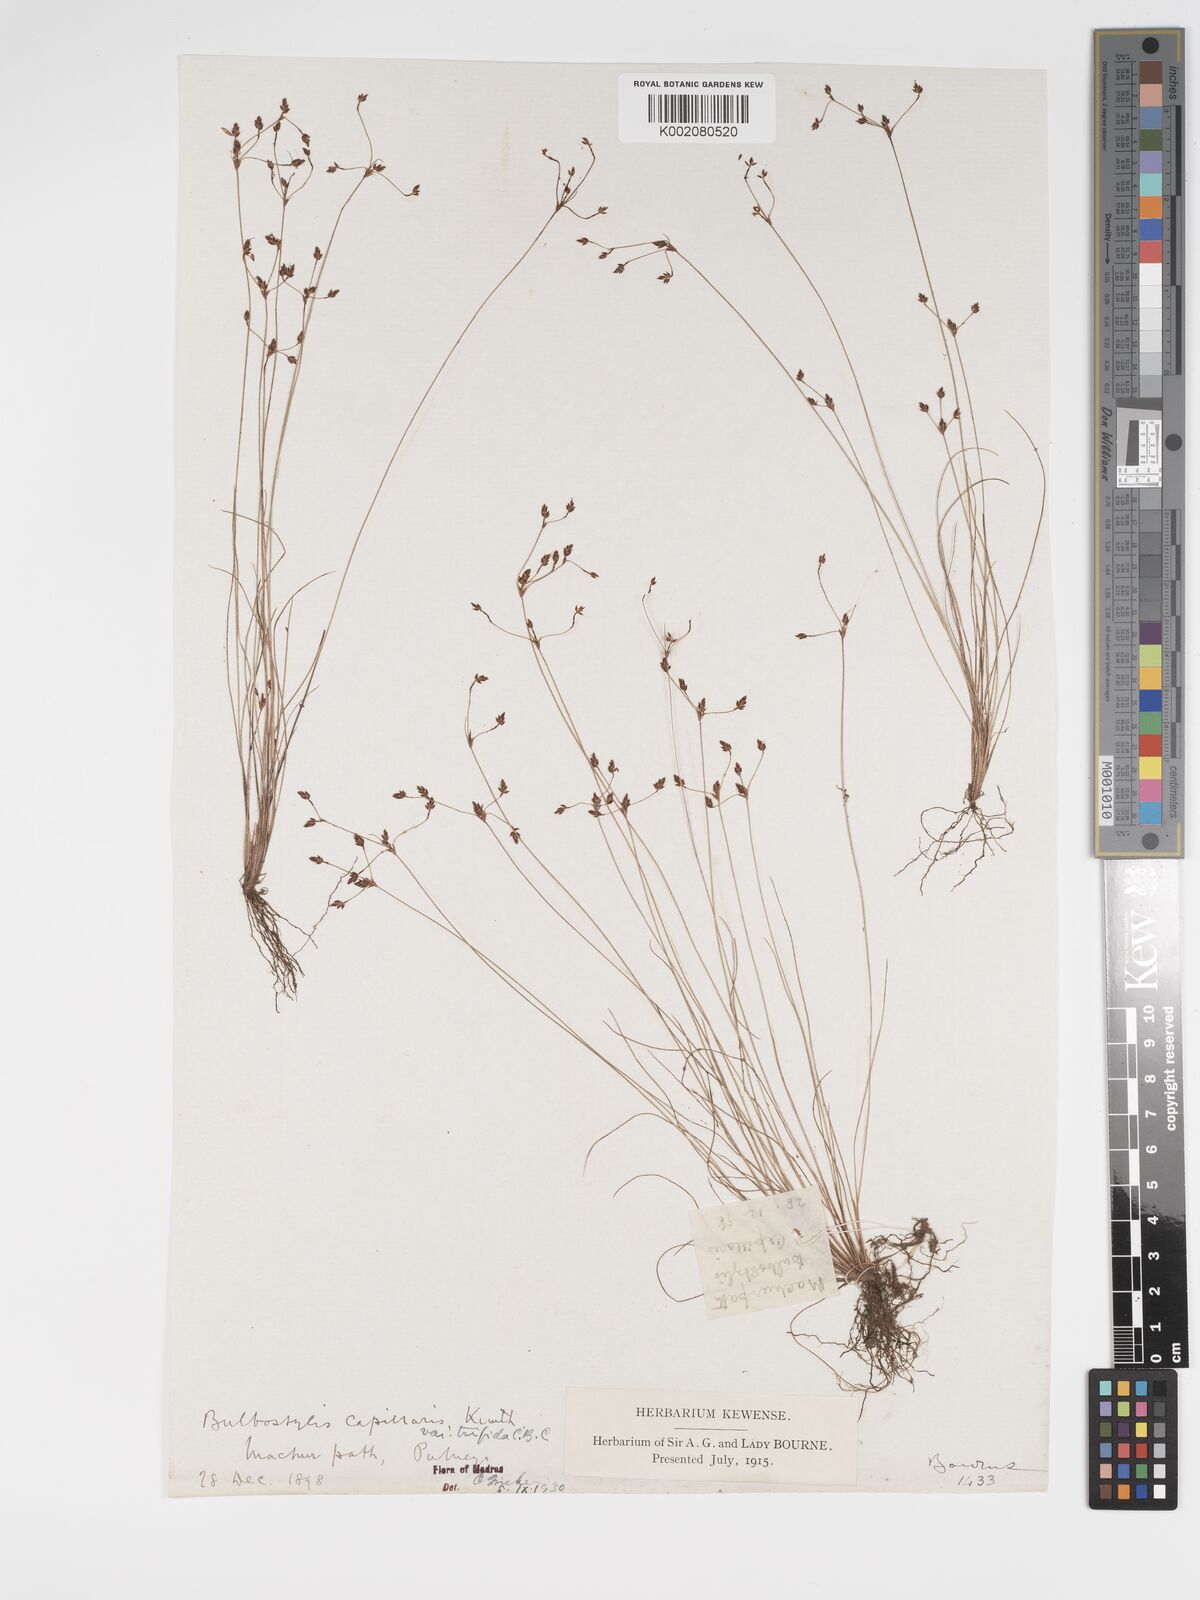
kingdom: Plantae
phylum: Tracheophyta
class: Liliopsida
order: Poales
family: Cyperaceae
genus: Bulbostylis
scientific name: Bulbostylis capillaris
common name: Densetuft hairsedge
